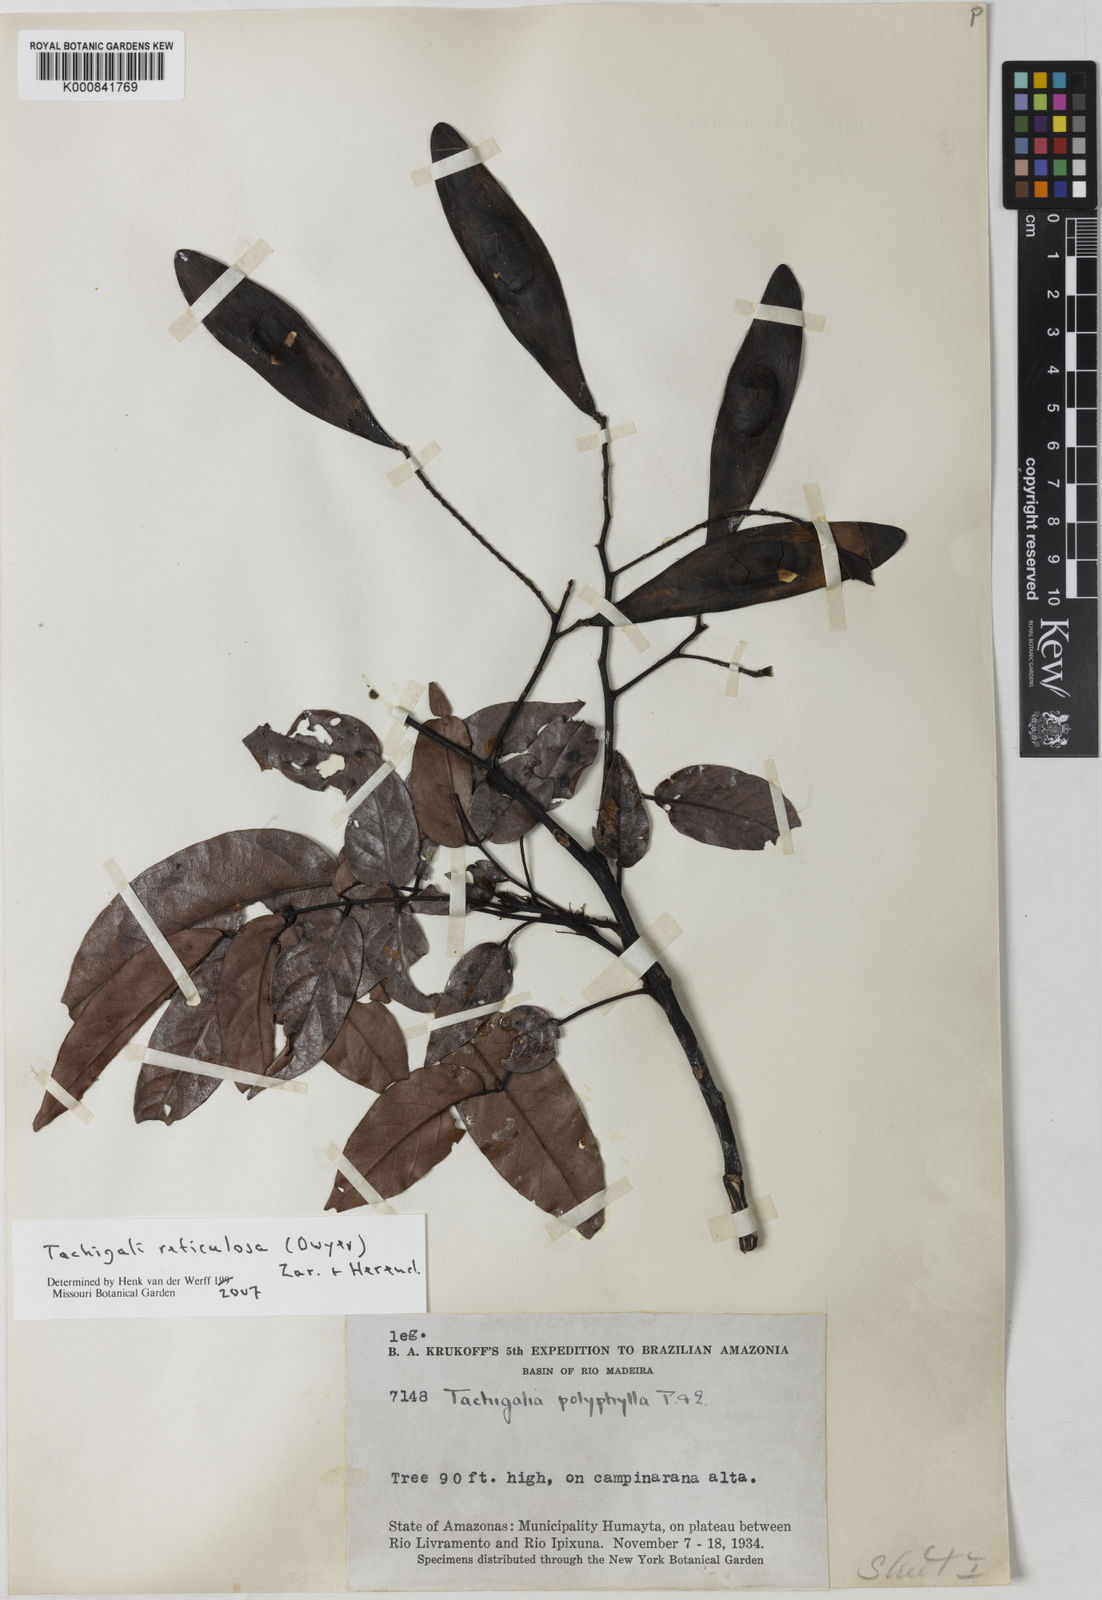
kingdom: Plantae
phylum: Tracheophyta
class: Magnoliopsida
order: Fabales
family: Fabaceae
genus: Tachigali
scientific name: Tachigali tinctoria
